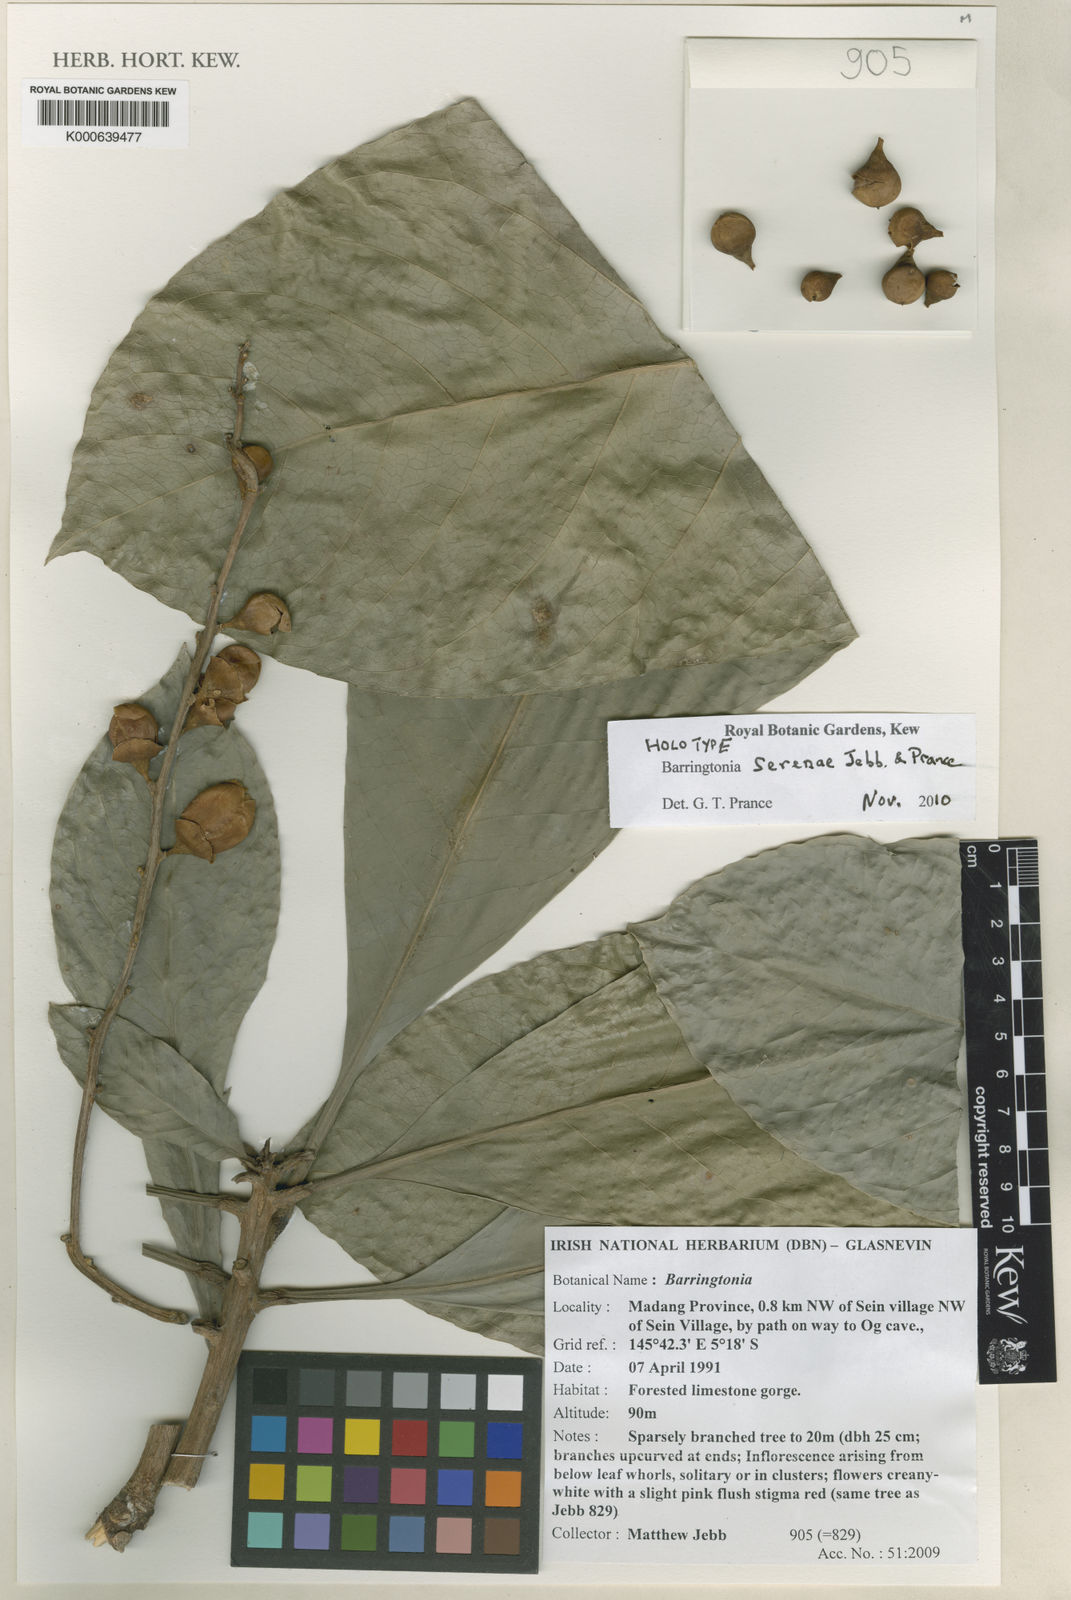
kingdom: Plantae
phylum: Tracheophyta
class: Magnoliopsida
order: Ericales
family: Lecythidaceae
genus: Barringtonia
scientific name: Barringtonia serenae
